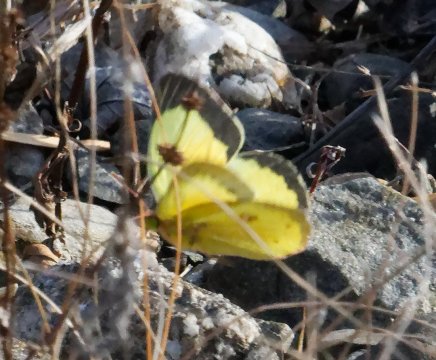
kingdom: Animalia
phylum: Arthropoda
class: Insecta
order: Lepidoptera
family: Pieridae
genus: Colias
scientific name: Colias eurytheme
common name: Orange Sulphur
